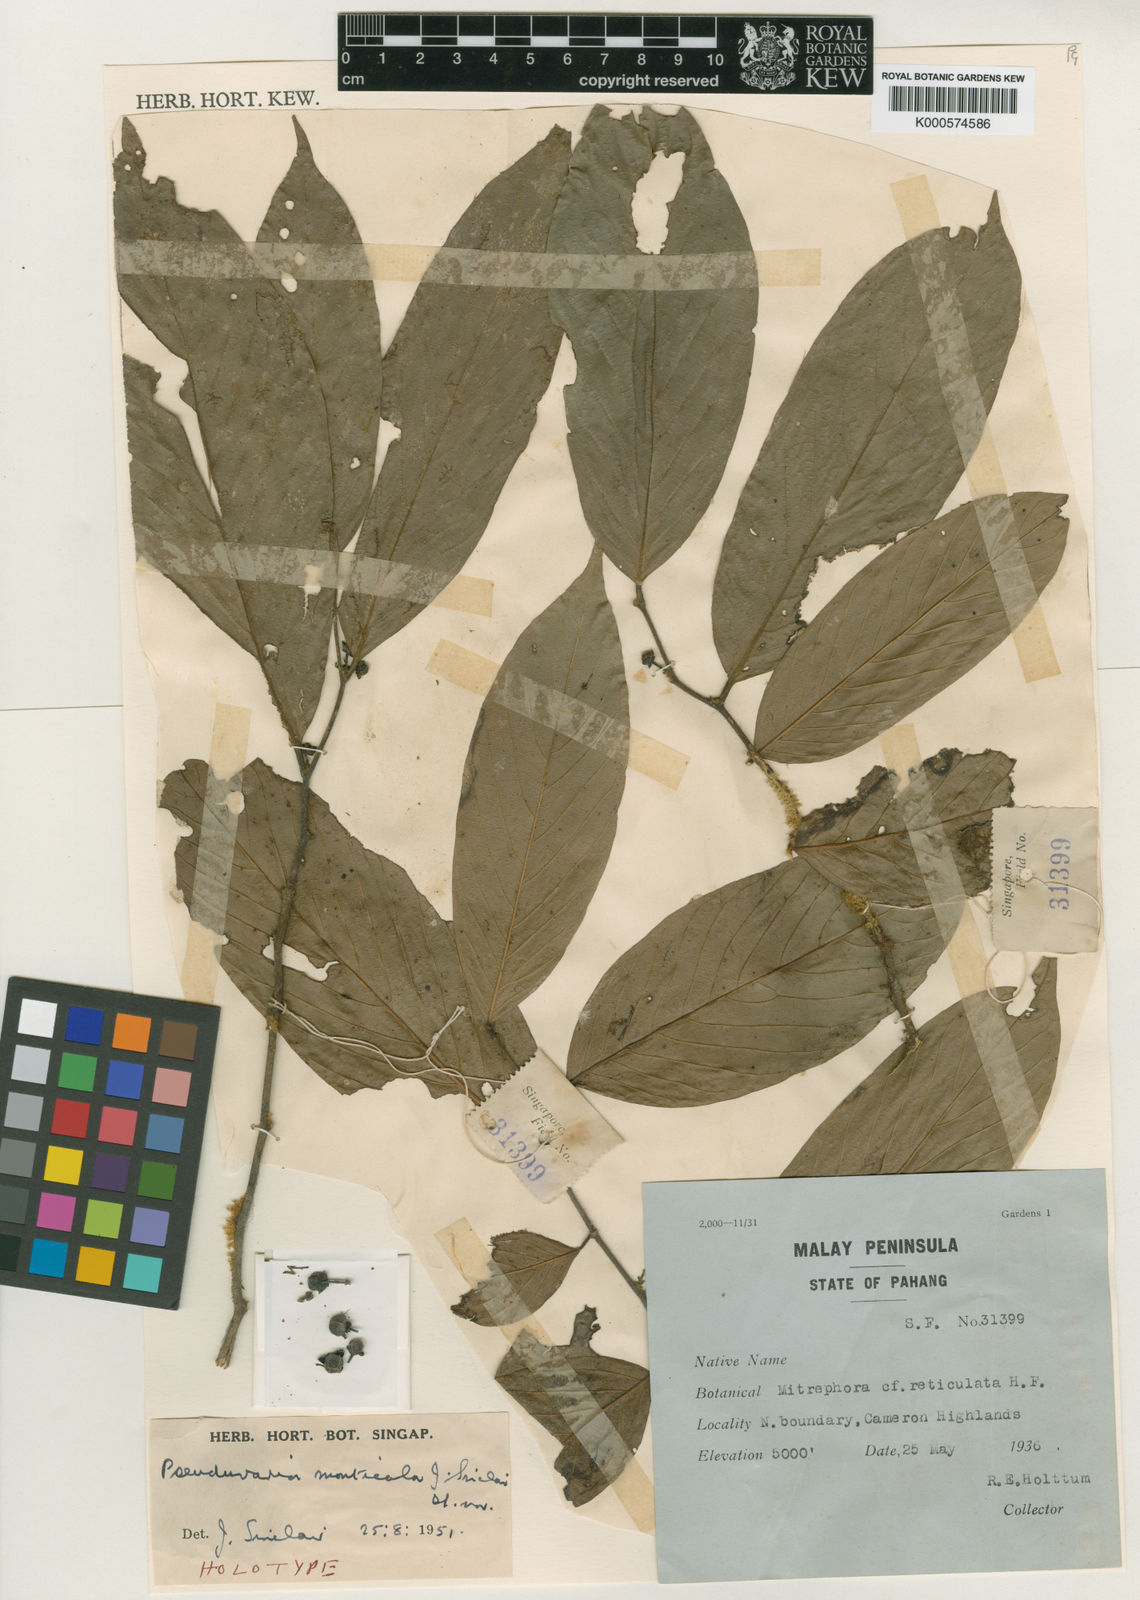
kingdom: Plantae
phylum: Tracheophyta
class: Magnoliopsida
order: Magnoliales
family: Annonaceae
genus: Pseuduvaria
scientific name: Pseuduvaria monticola
